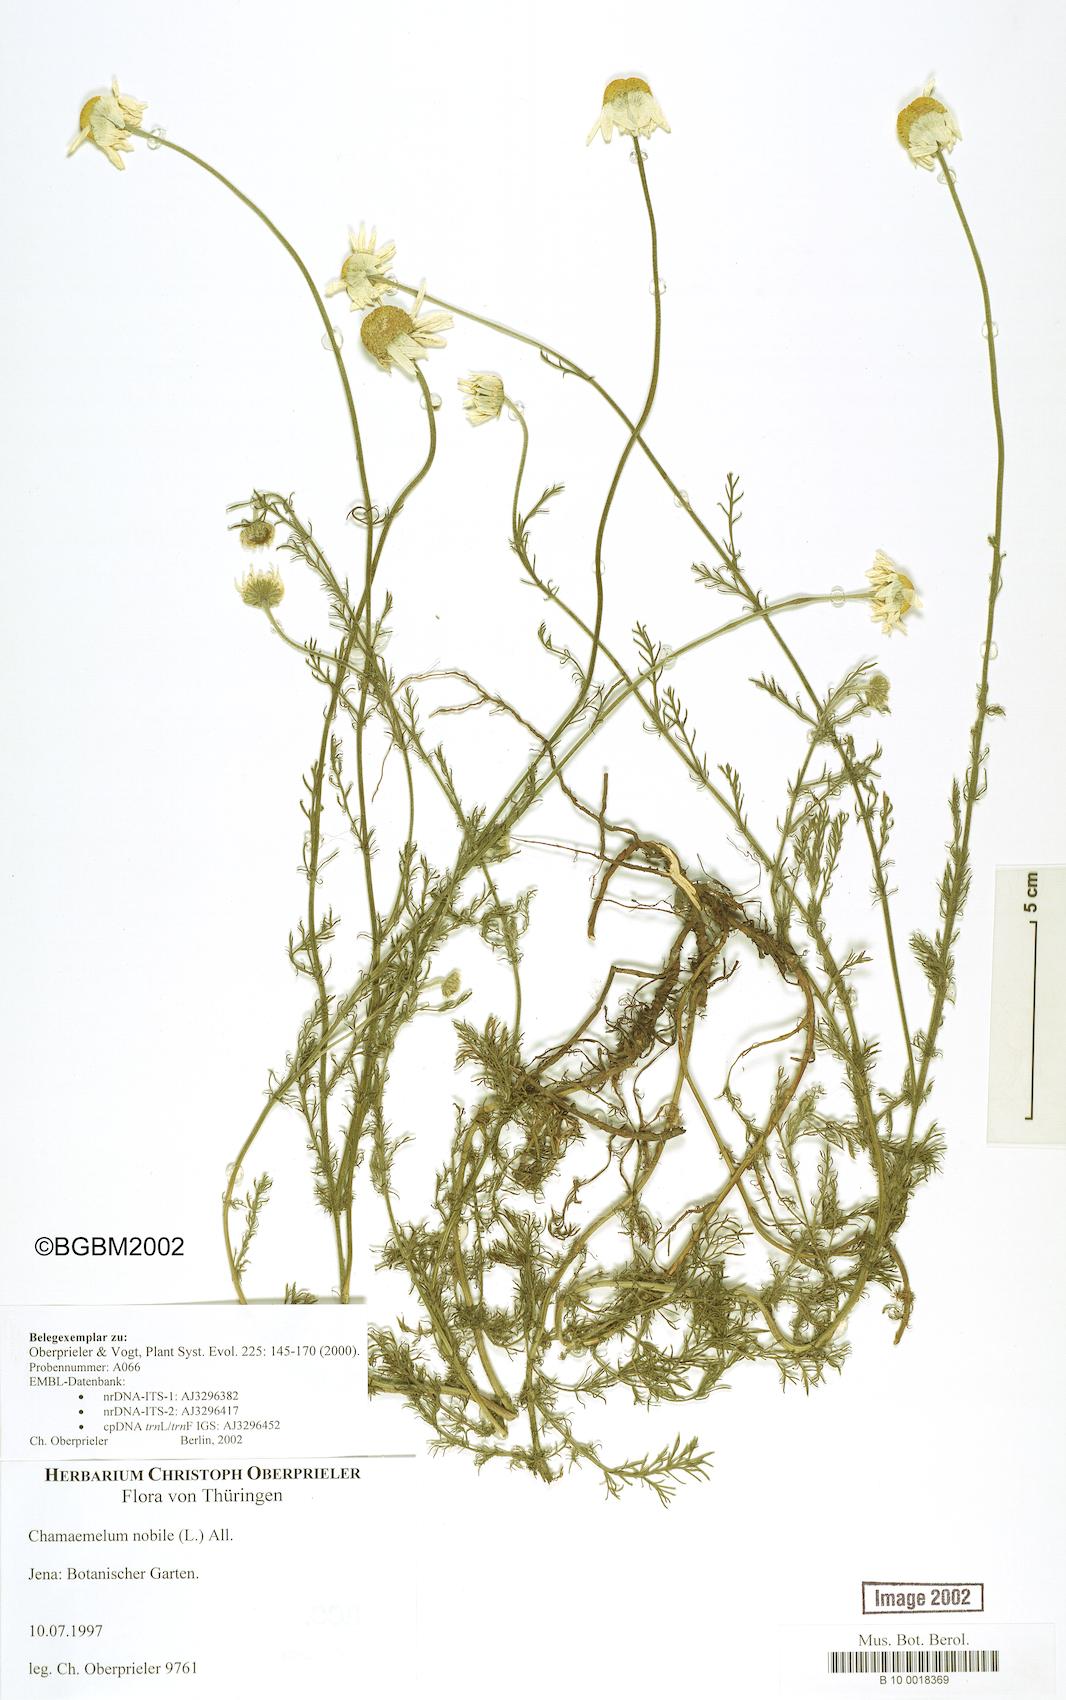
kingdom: Plantae
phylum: Tracheophyta
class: Magnoliopsida
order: Asterales
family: Asteraceae
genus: Chamaemelum
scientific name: Chamaemelum nobile
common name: Roman chamomile
